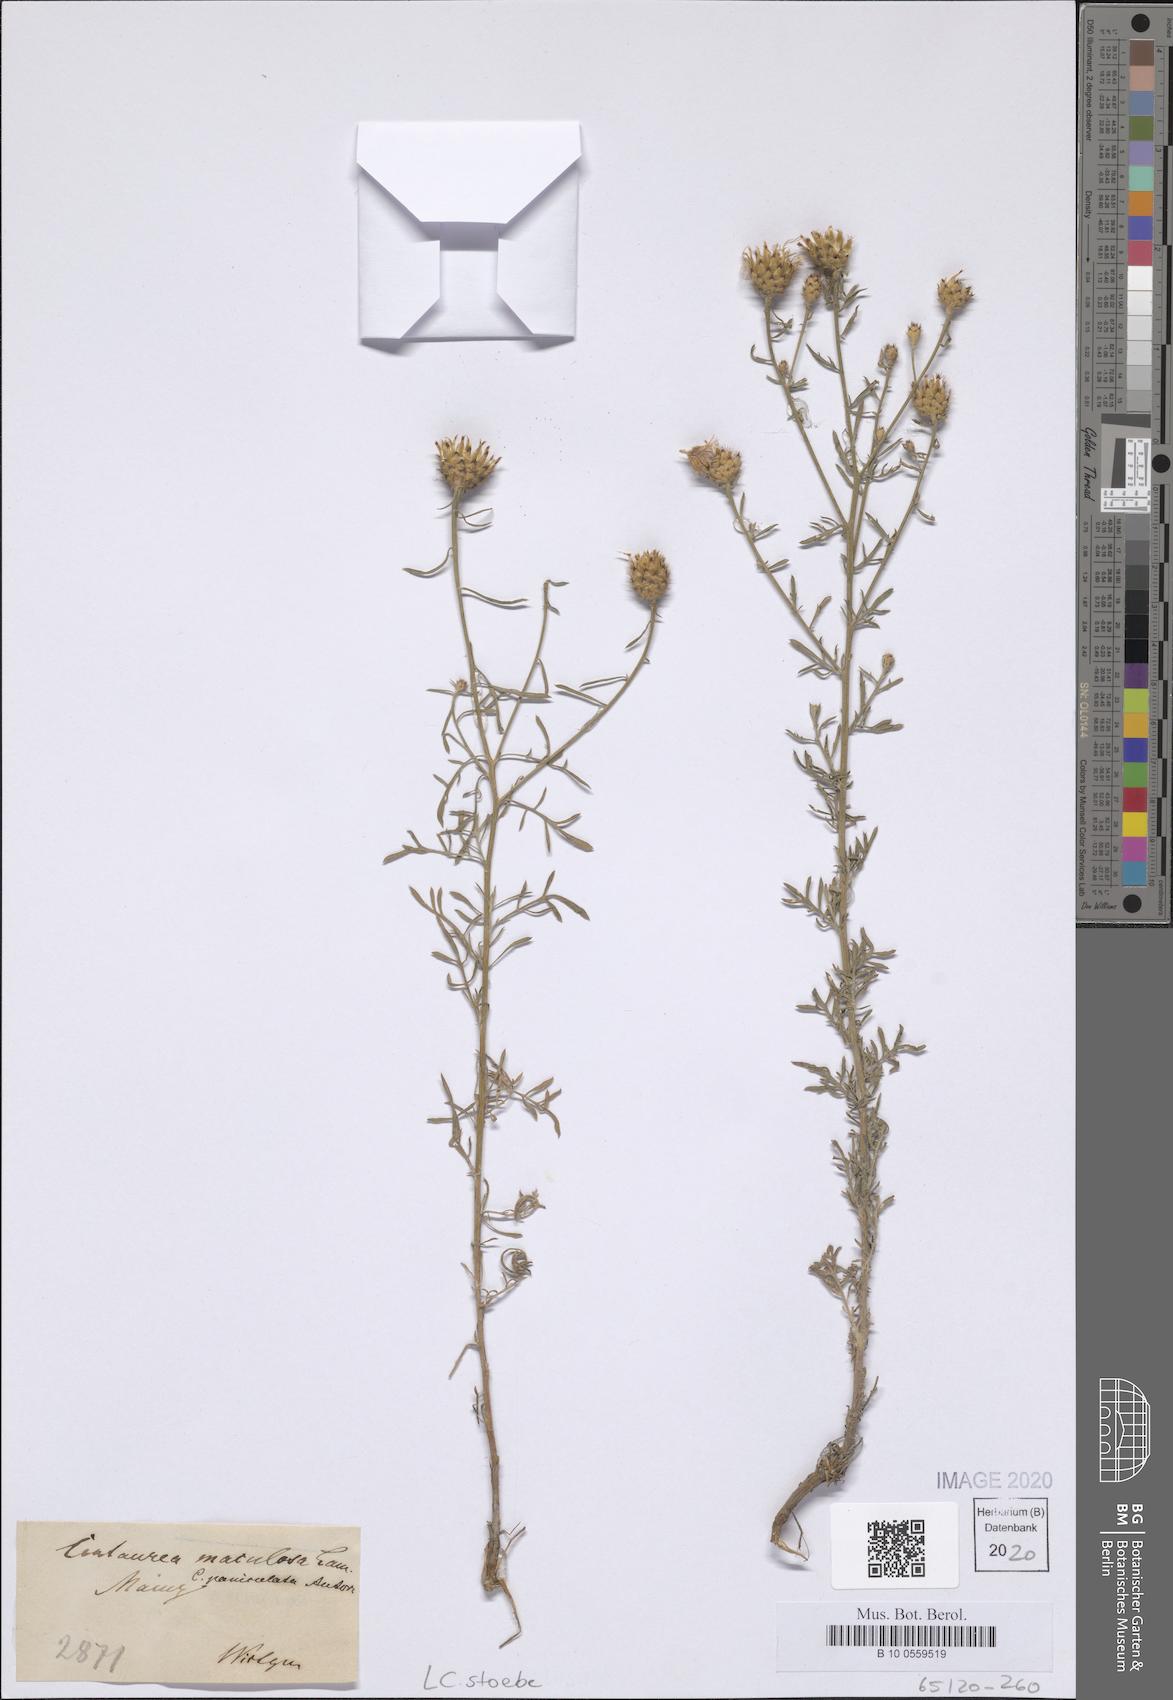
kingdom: Plantae
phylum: Tracheophyta
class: Magnoliopsida
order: Asterales
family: Asteraceae
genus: Centaurea
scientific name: Centaurea stoebe
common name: Spotted knapweed
